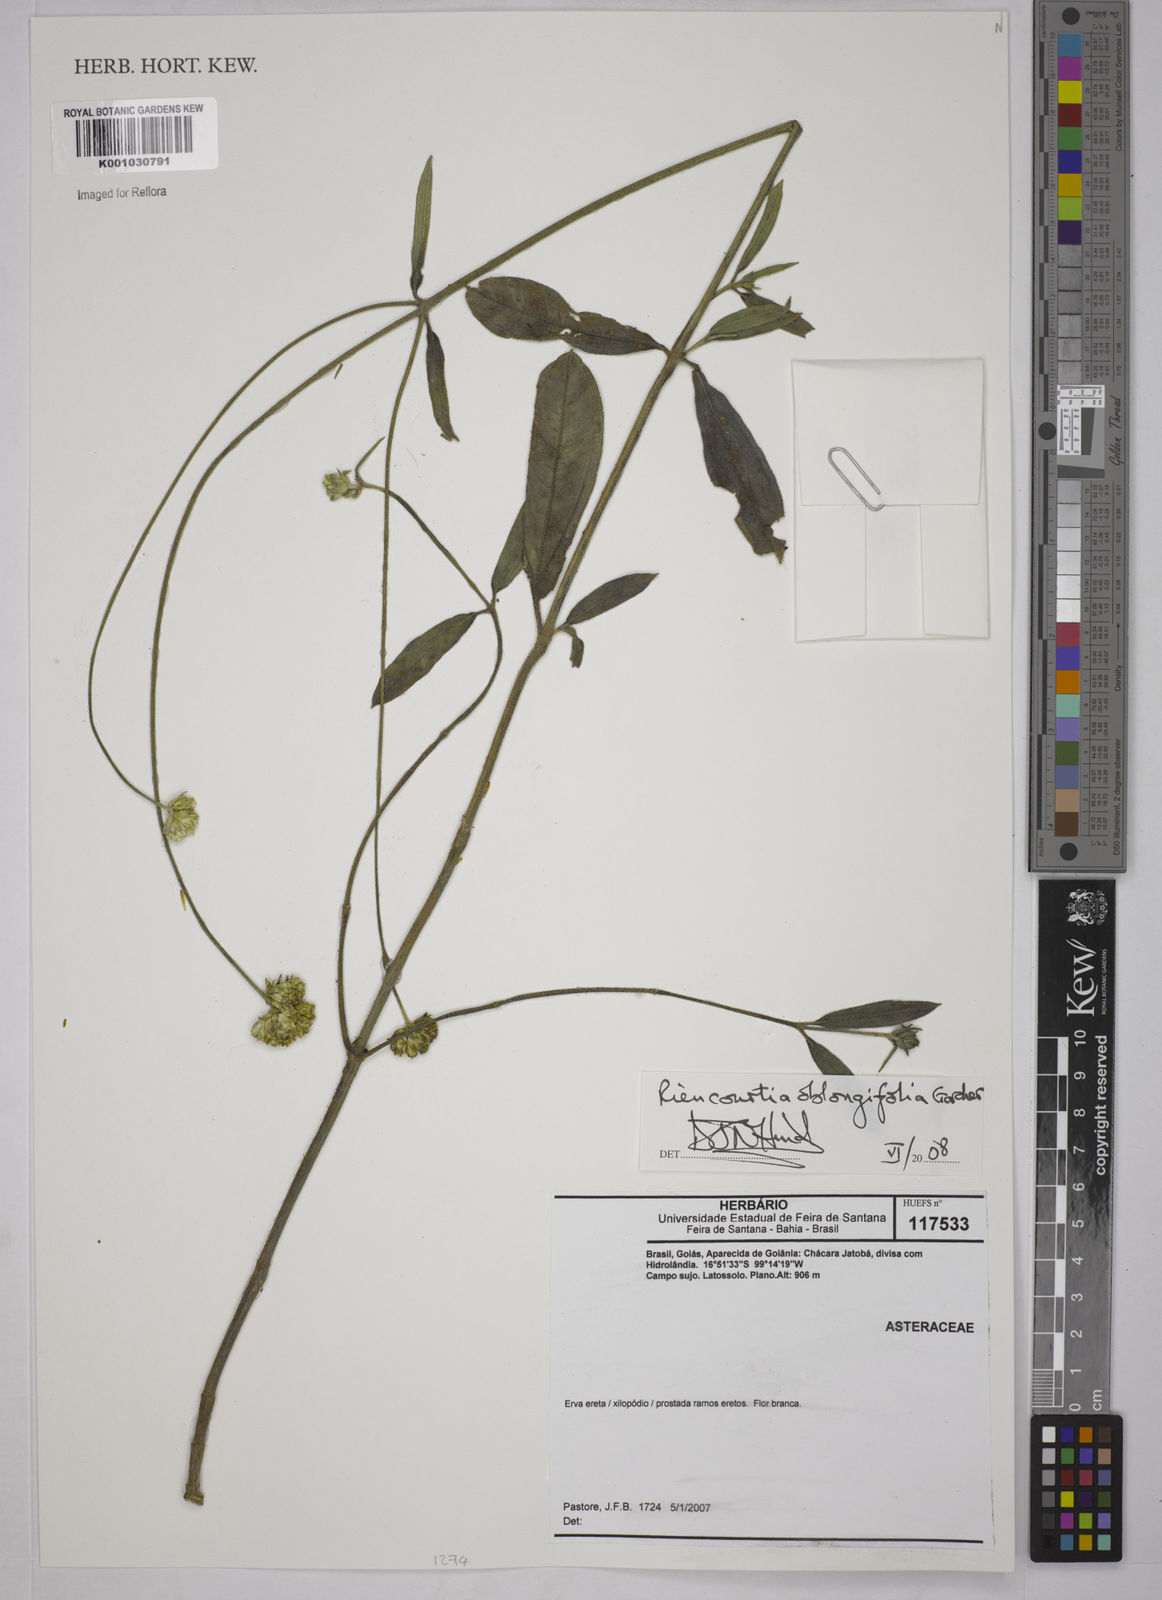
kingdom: Plantae
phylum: Tracheophyta
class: Magnoliopsida
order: Asterales
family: Asteraceae
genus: Riencourtia
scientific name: Riencourtia oblongifolia
